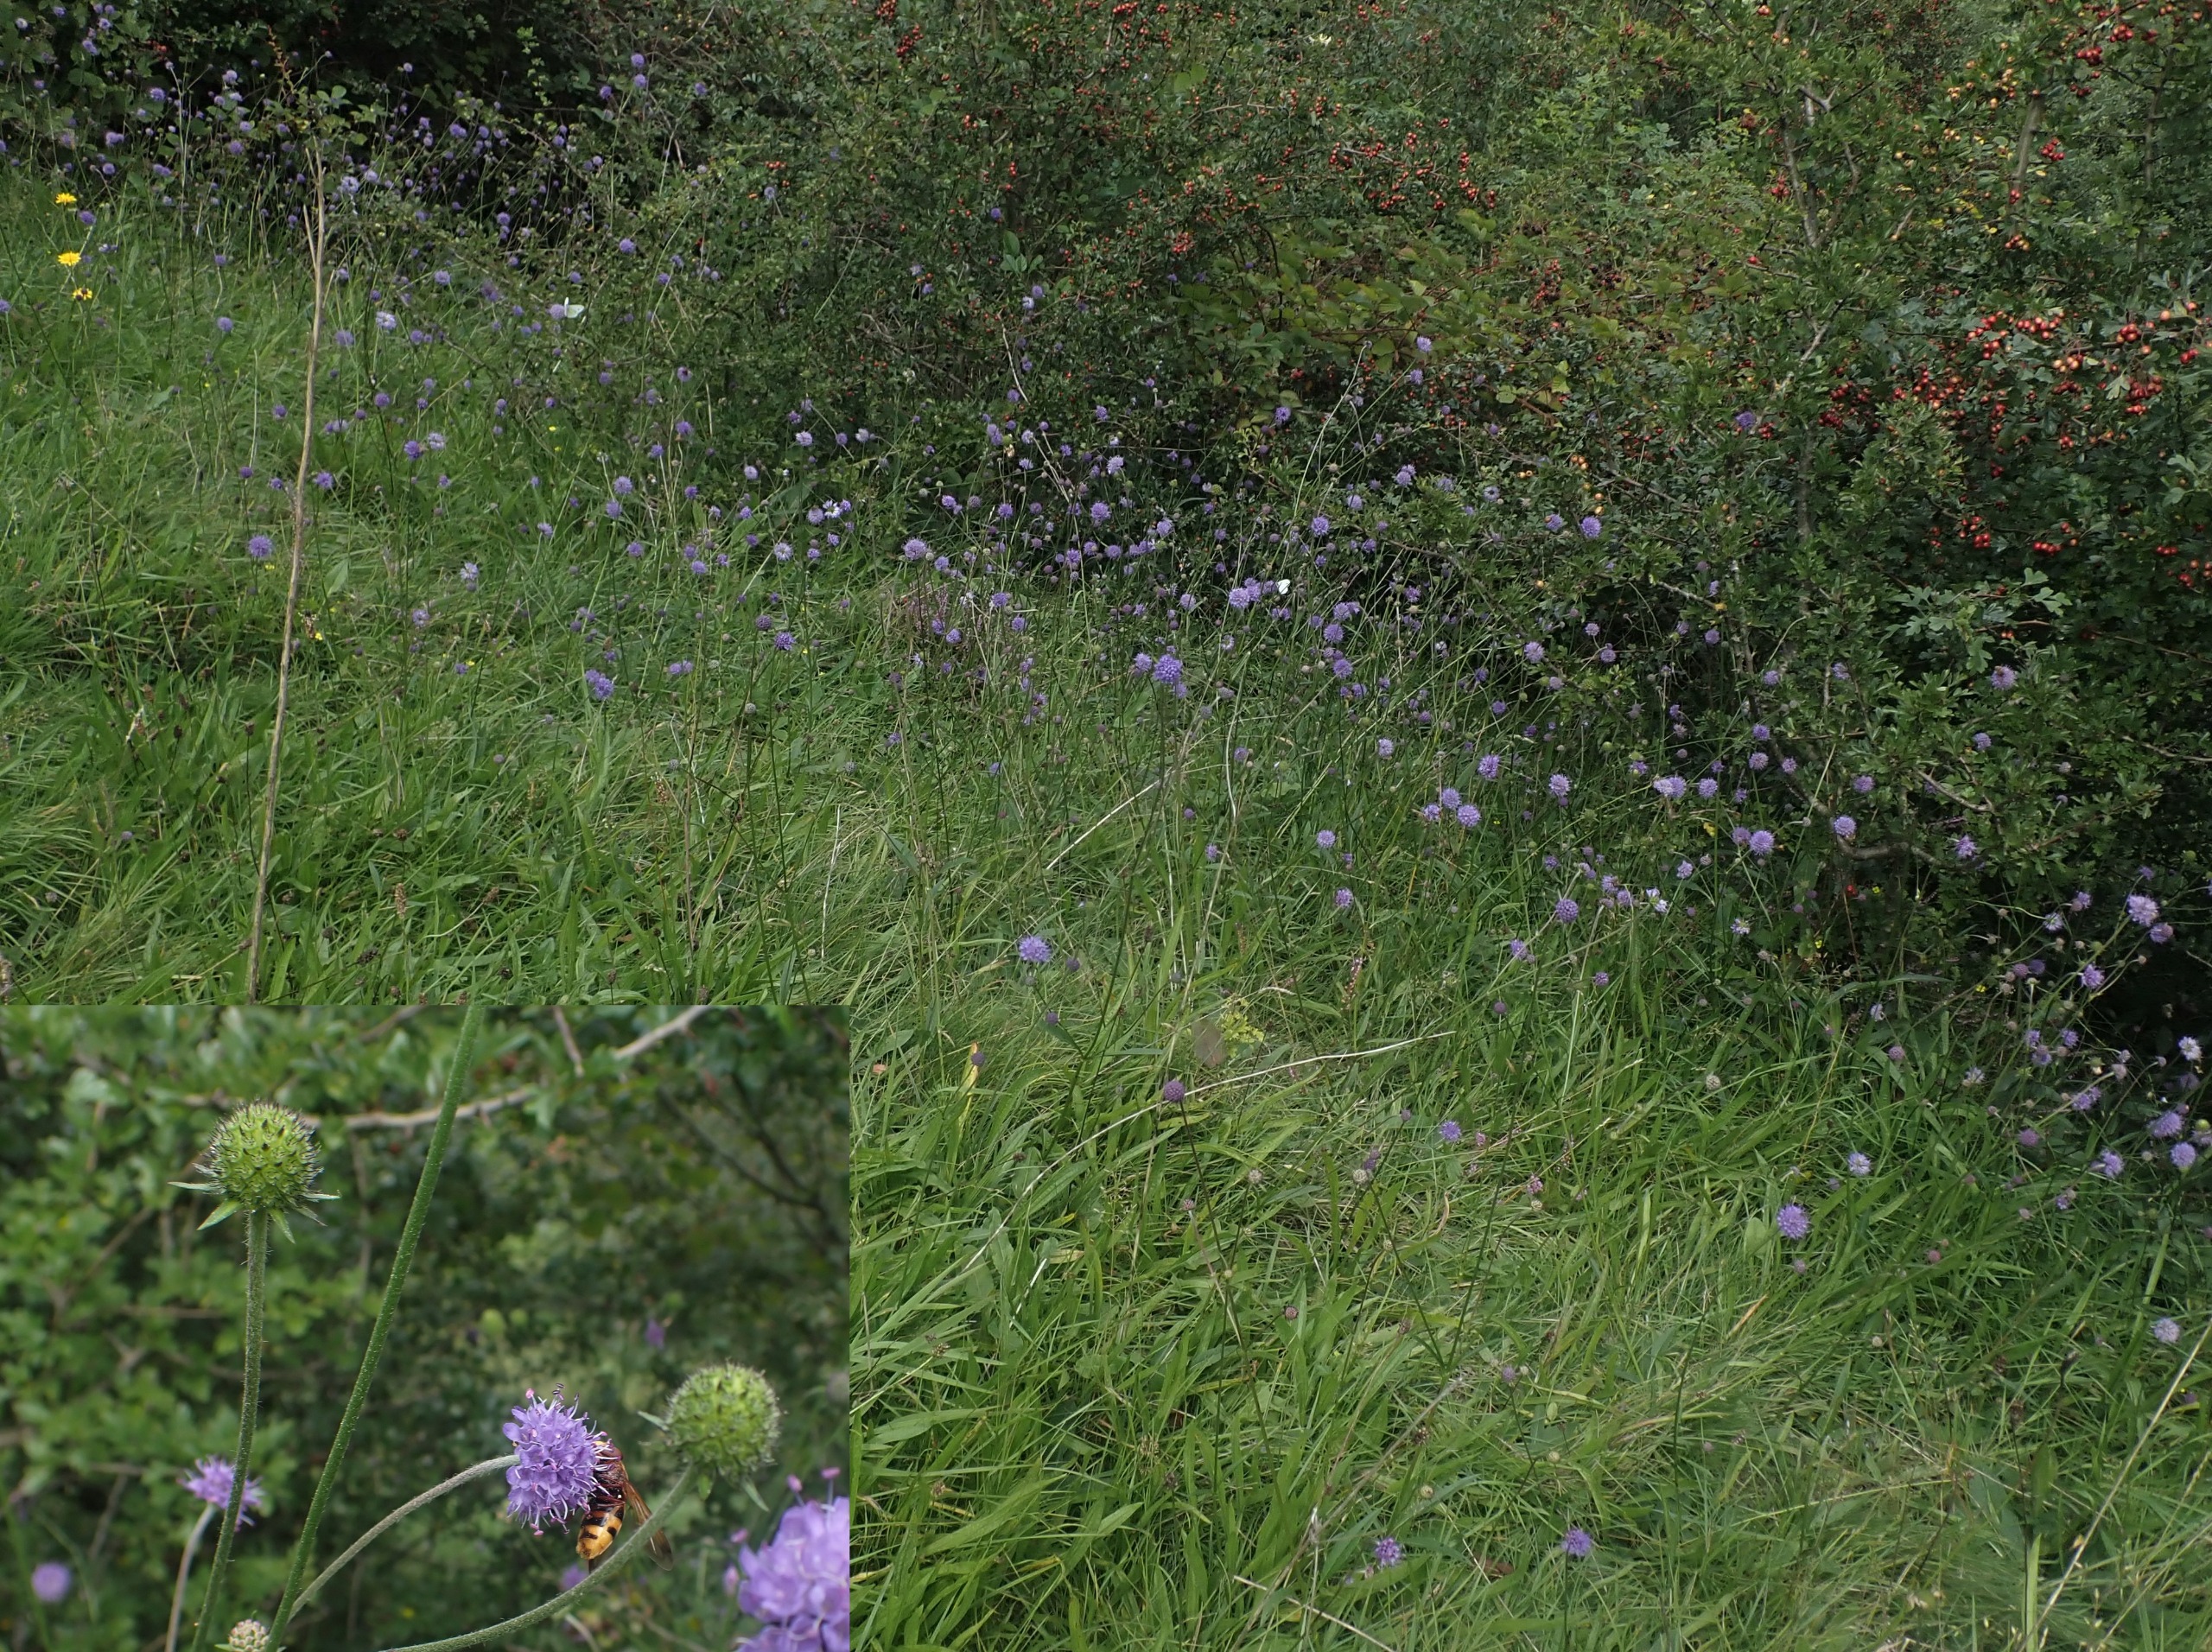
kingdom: Plantae
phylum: Tracheophyta
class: Magnoliopsida
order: Dipsacales
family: Caprifoliaceae
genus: Succisa
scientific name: Succisa pratensis
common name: Djævelsbid
